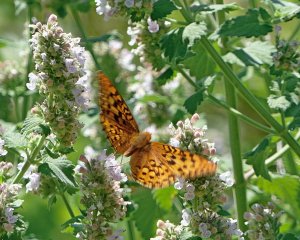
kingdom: Animalia
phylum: Arthropoda
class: Insecta
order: Lepidoptera
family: Nymphalidae
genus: Speyeria
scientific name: Speyeria zerene
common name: Zerene Fritillary
